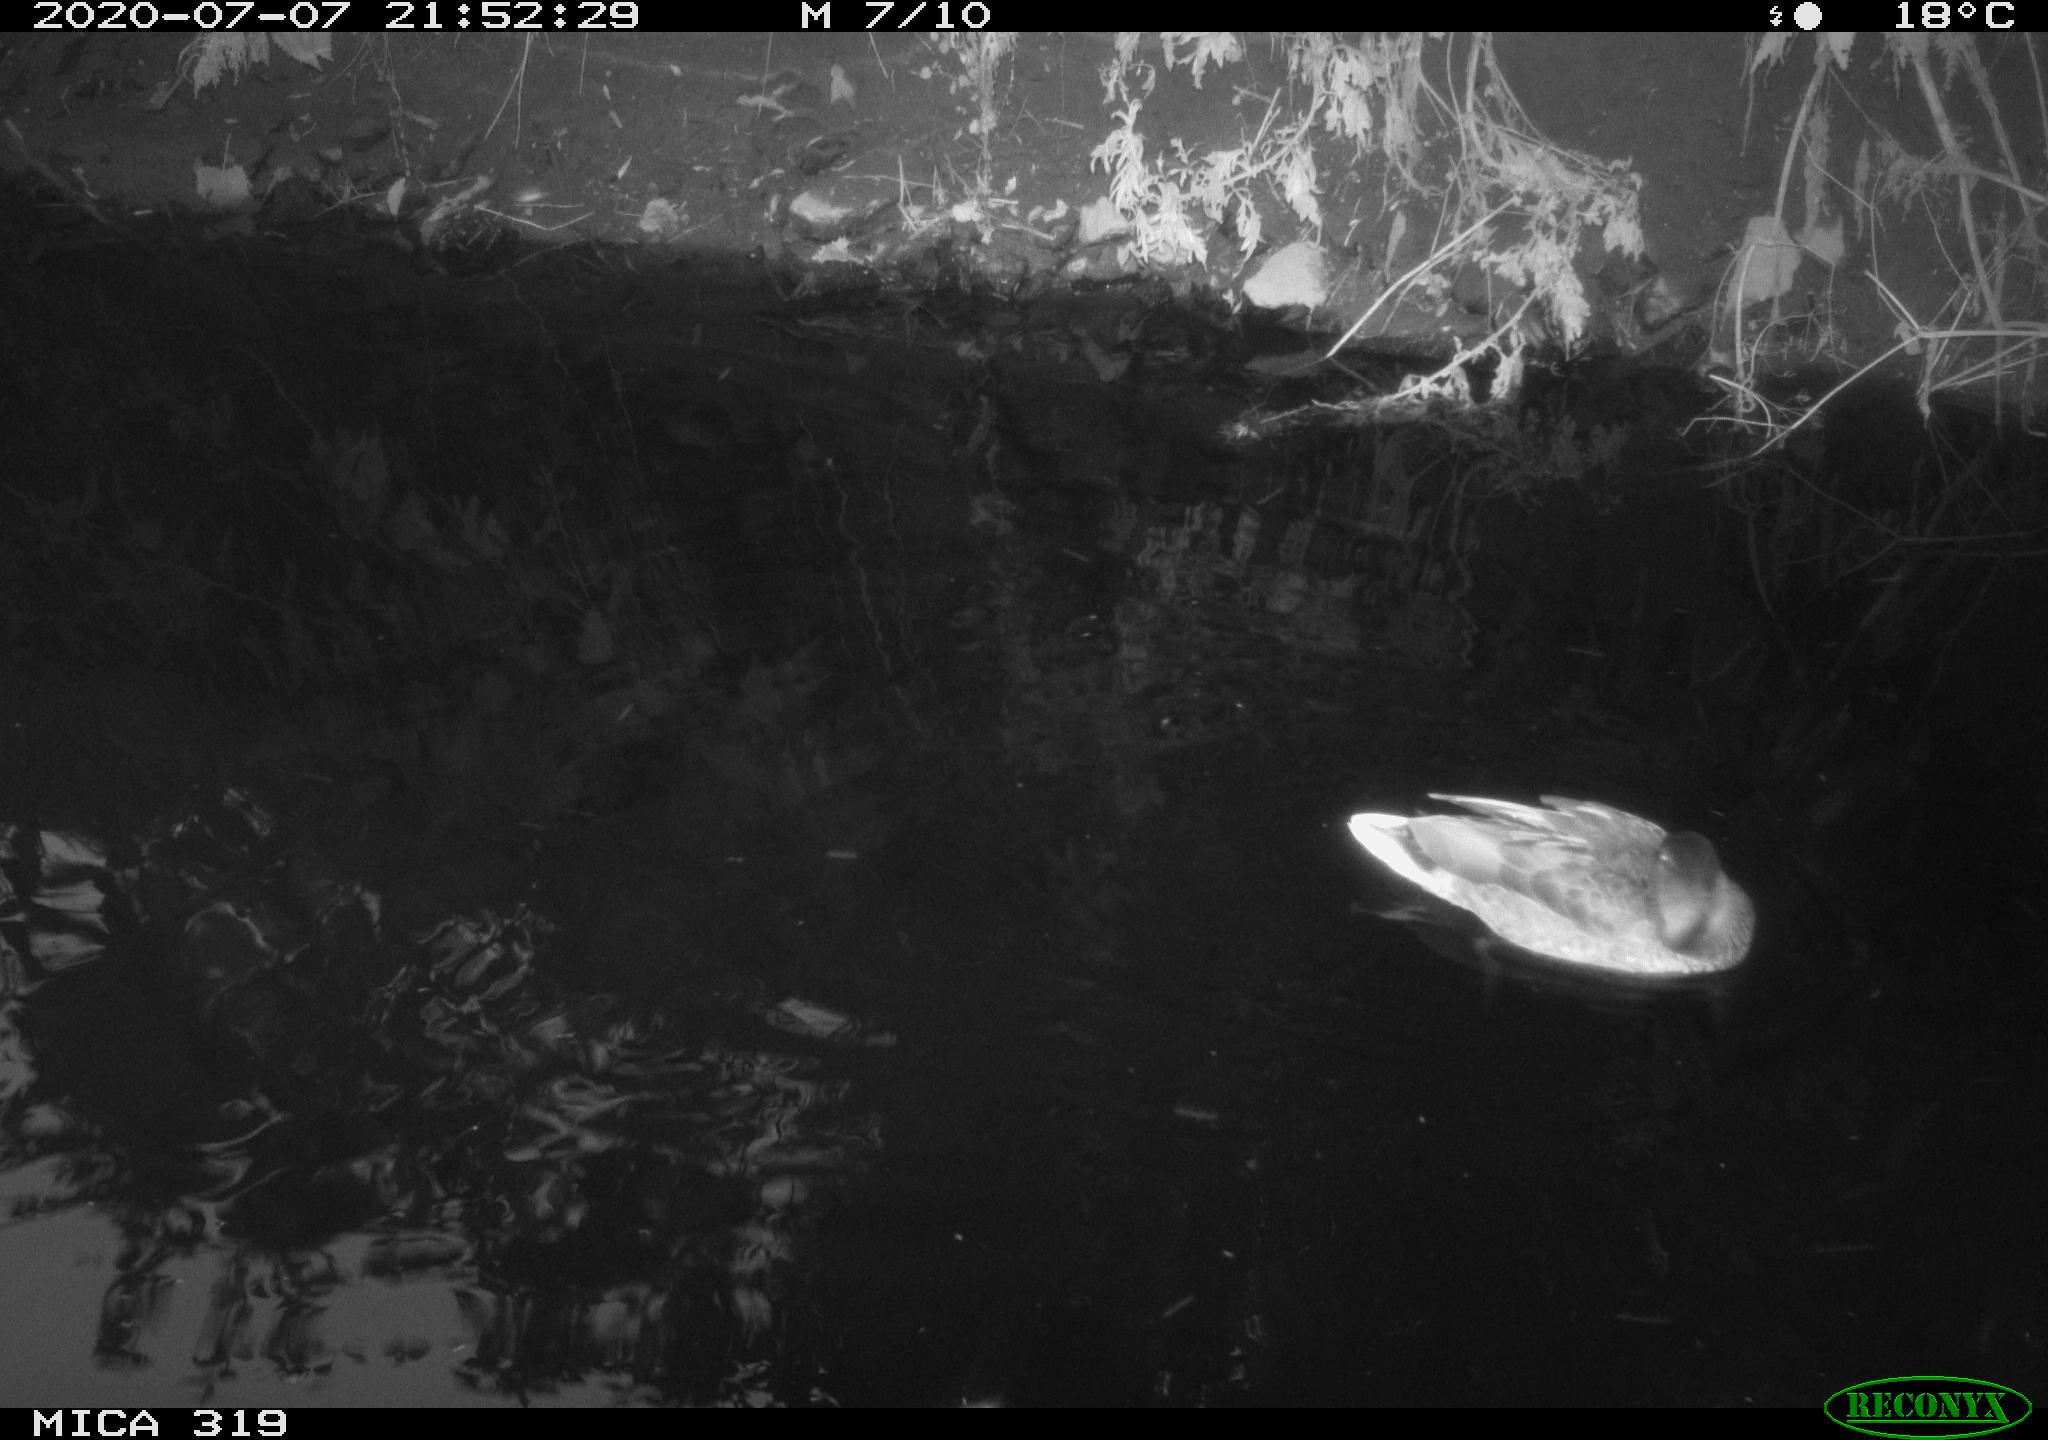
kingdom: Animalia
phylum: Chordata
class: Aves
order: Anseriformes
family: Anatidae
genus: Anas
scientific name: Anas platyrhynchos
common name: Mallard
